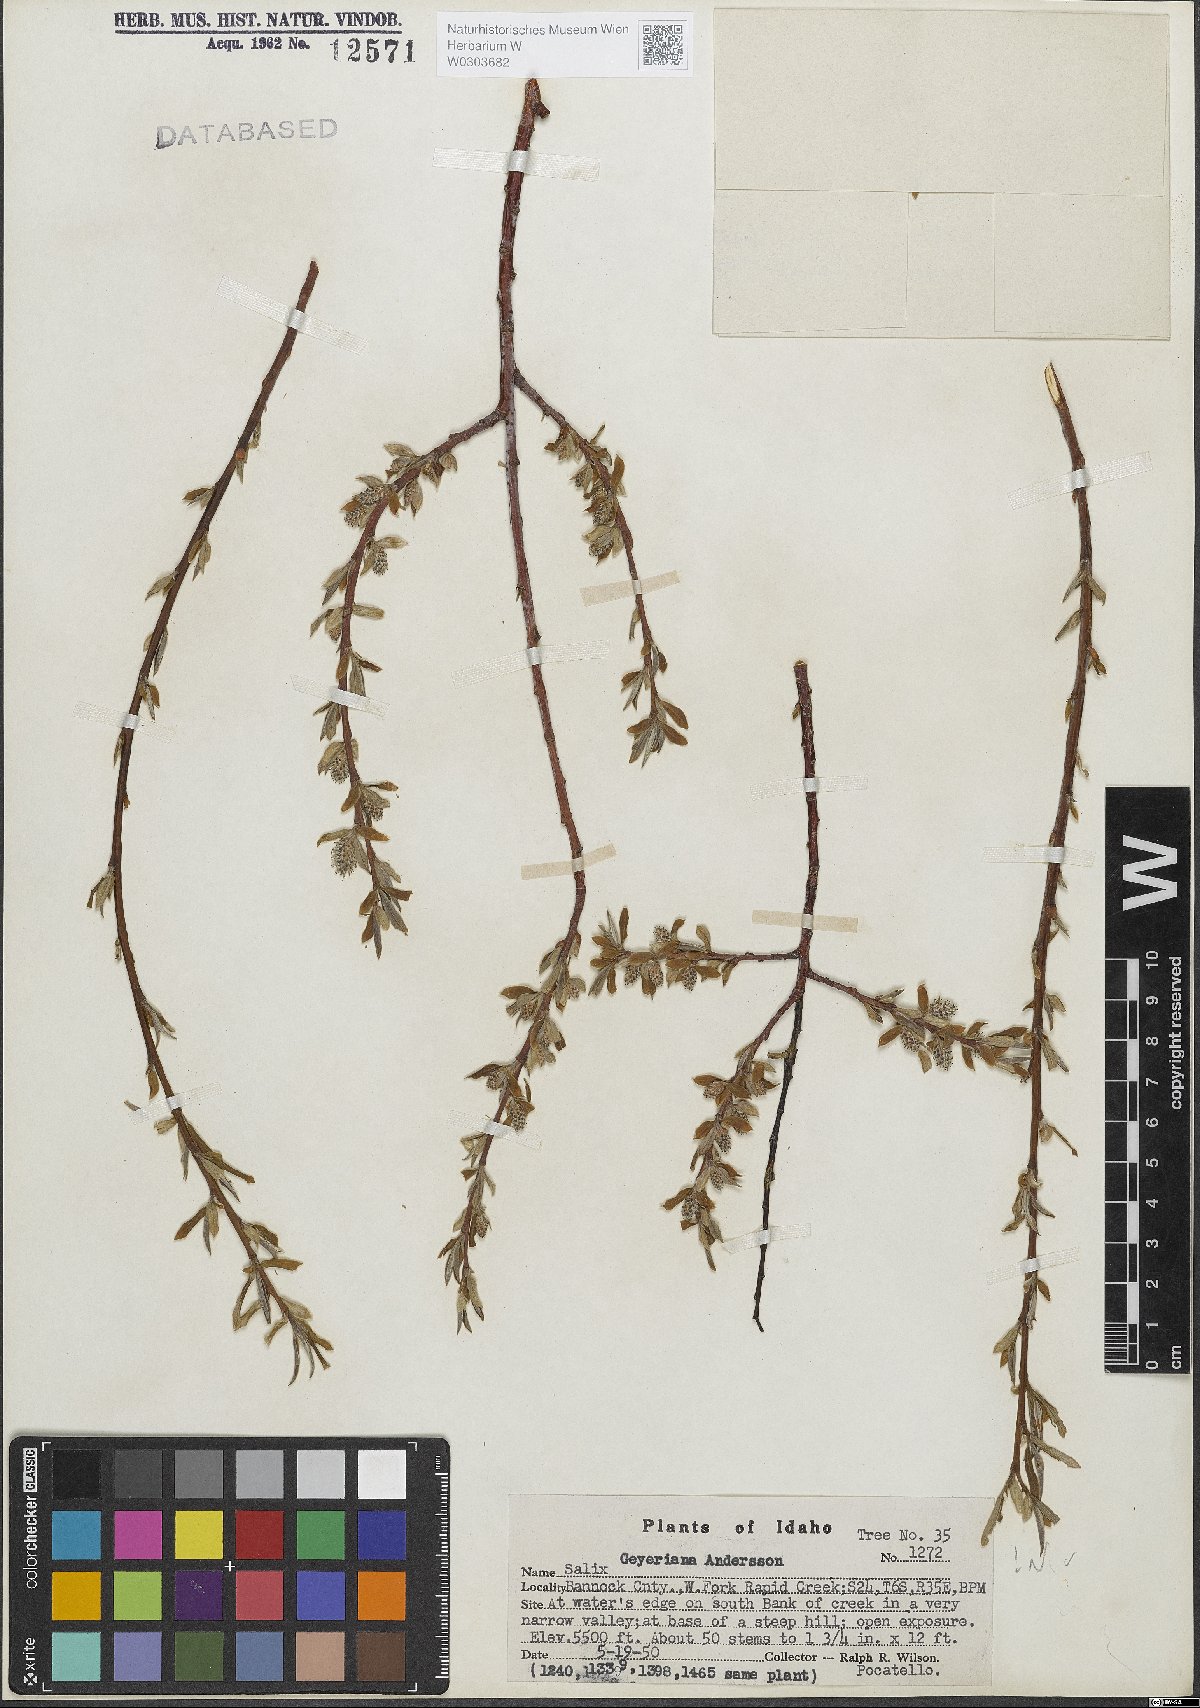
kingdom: Plantae
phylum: Tracheophyta
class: Magnoliopsida
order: Malpighiales
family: Salicaceae
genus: Salix
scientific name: Salix geyeriana
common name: Geyer's willow
